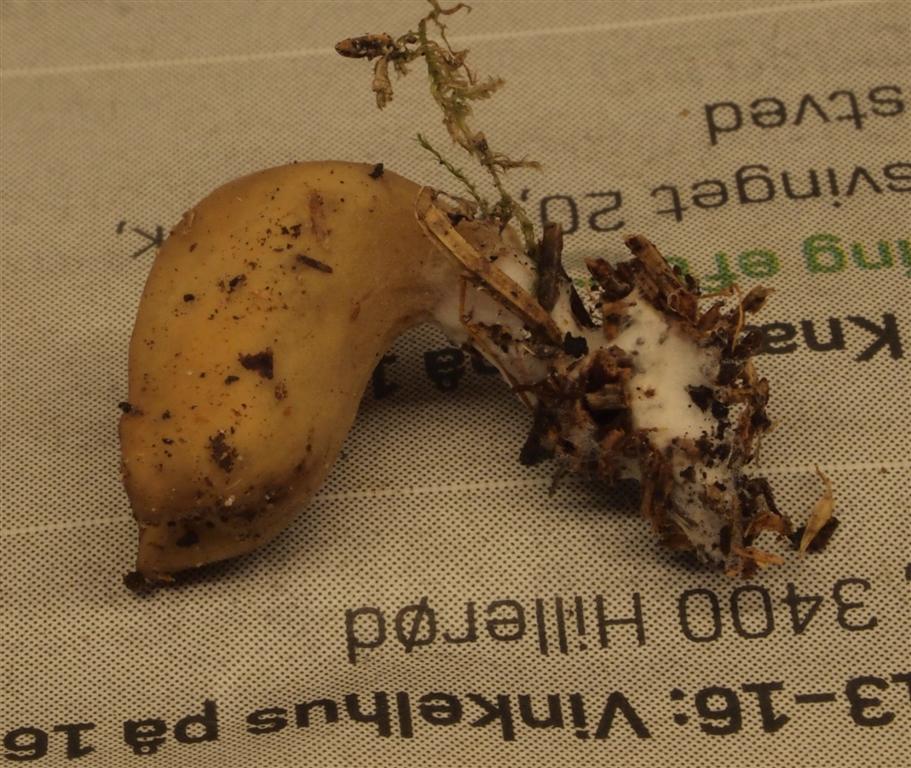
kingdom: Fungi
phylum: Ascomycota
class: Pezizomycetes
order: Pezizales
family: Otideaceae
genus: Otidea
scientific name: Otidea leporina
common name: hare-ørebæger
